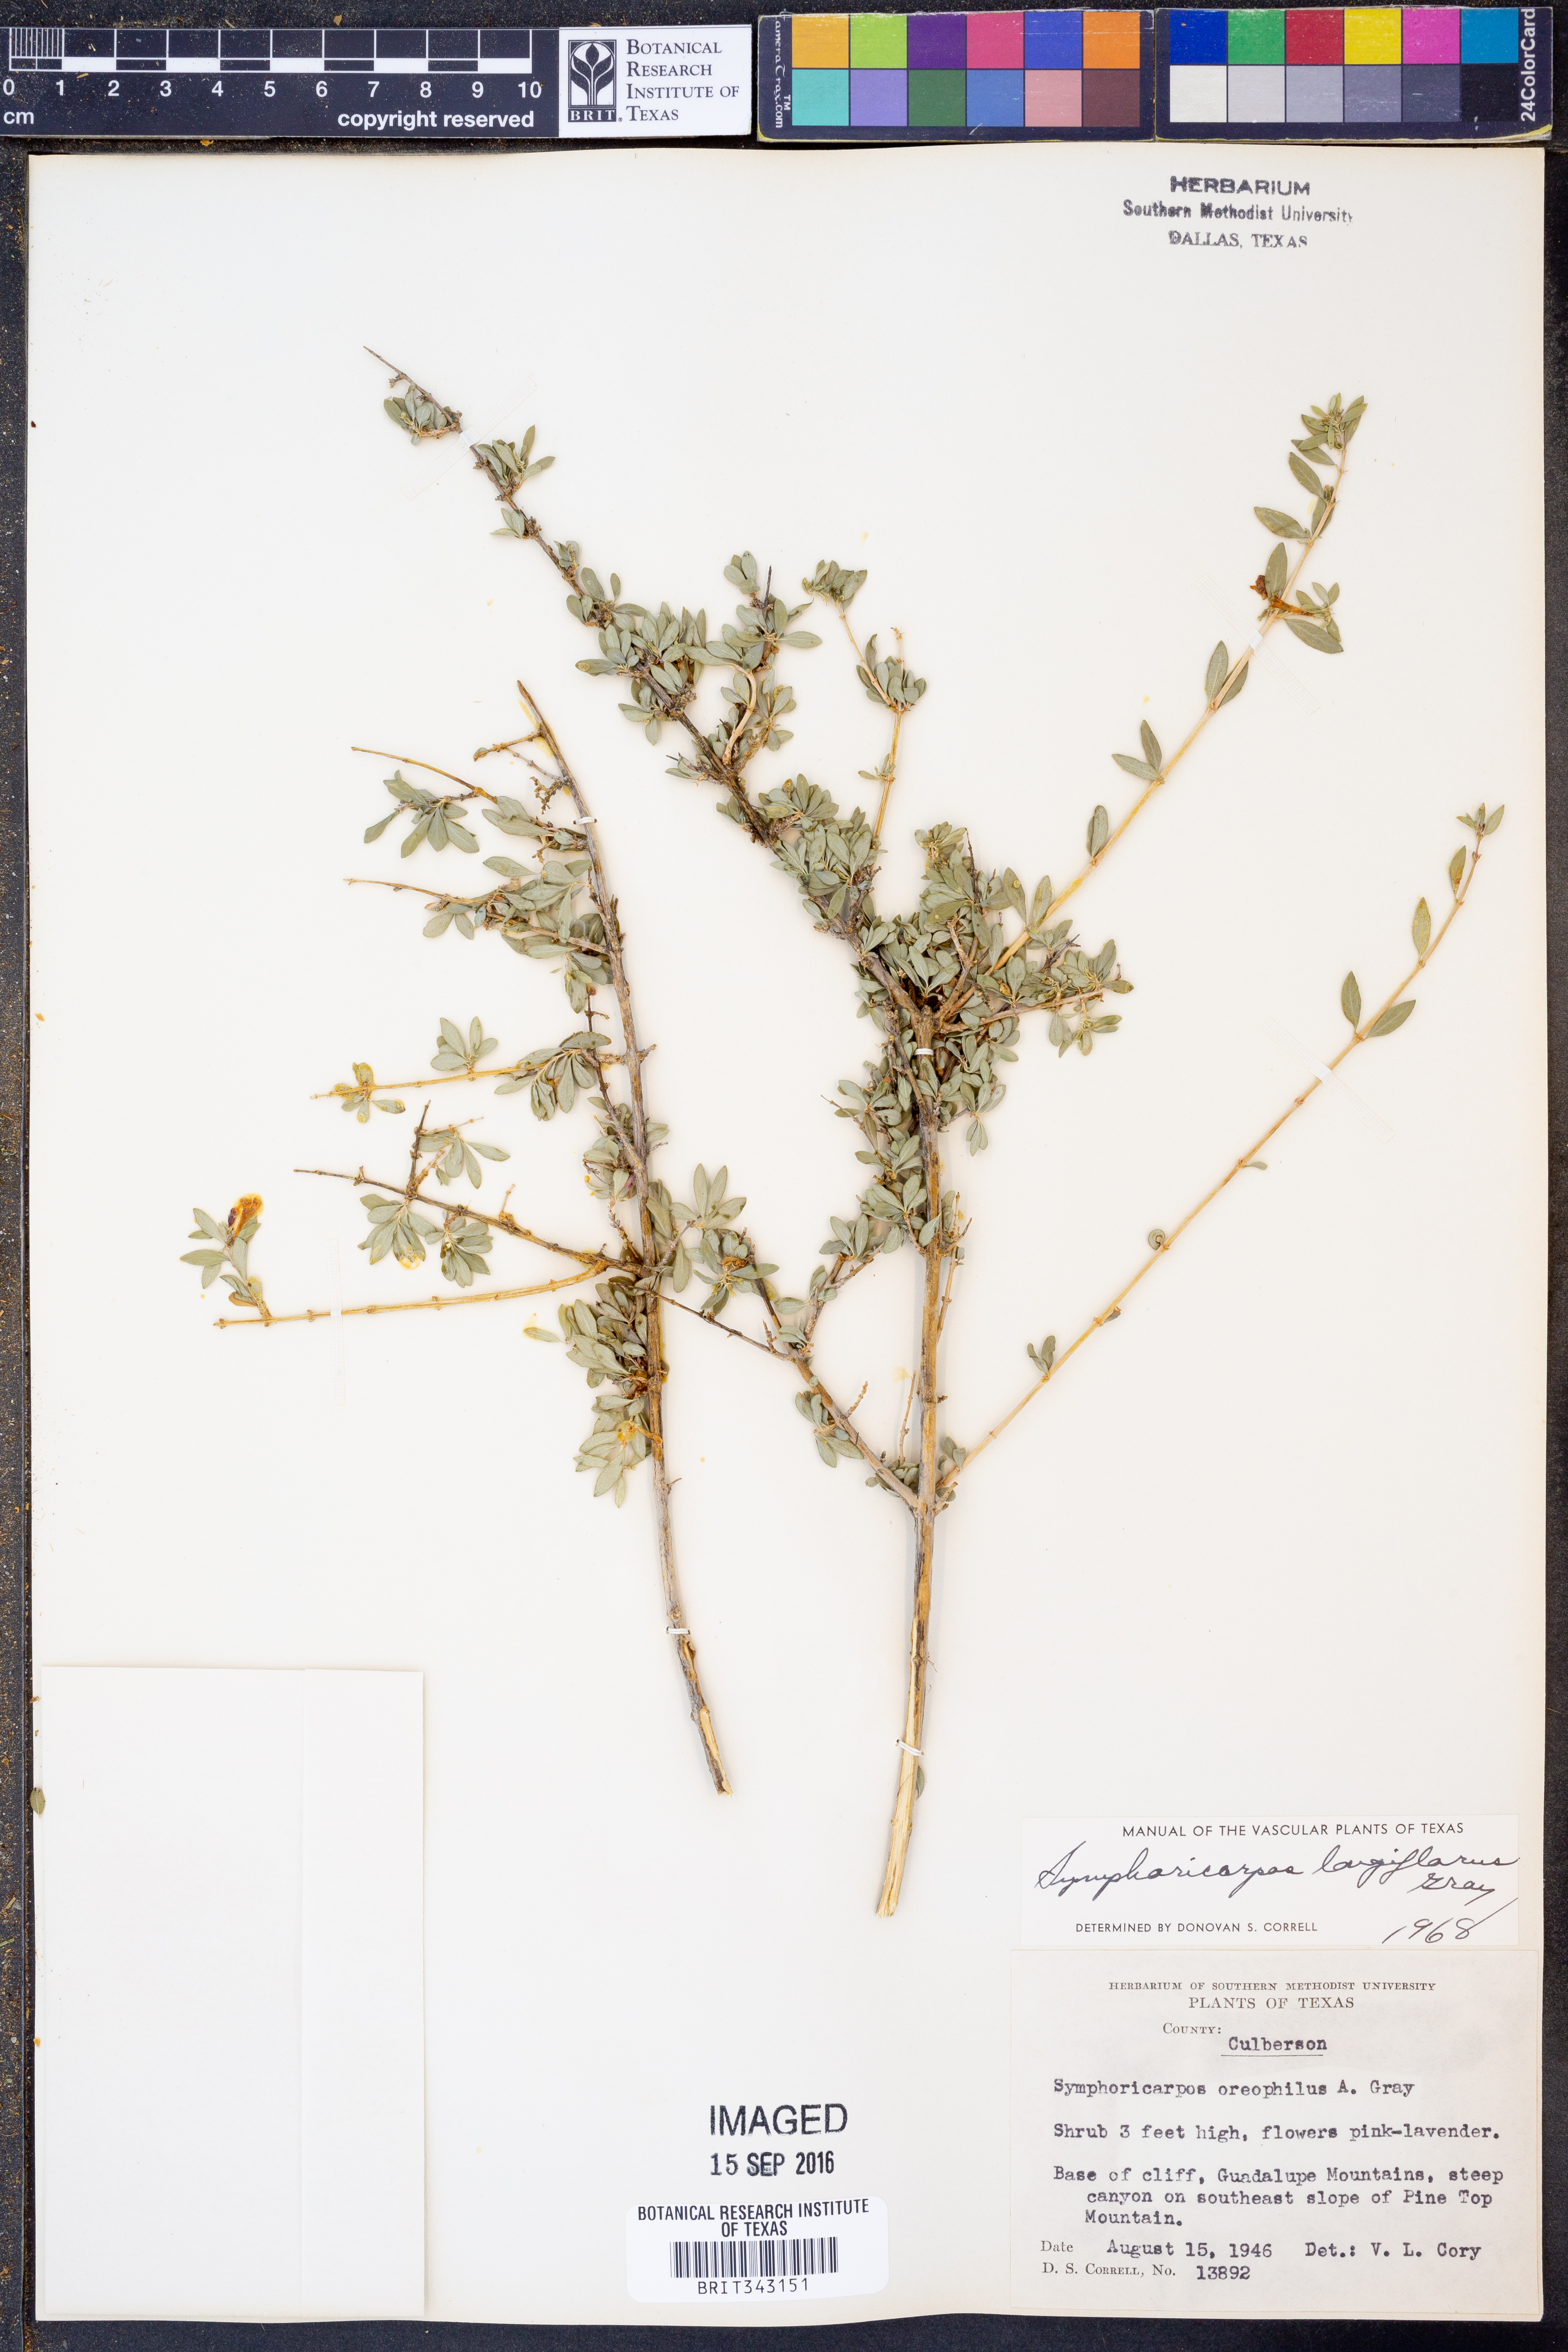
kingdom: Plantae
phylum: Tracheophyta
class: Magnoliopsida
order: Dipsacales
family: Caprifoliaceae
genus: Symphoricarpos
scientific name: Symphoricarpos longiflorus
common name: Fragrant snowberry
